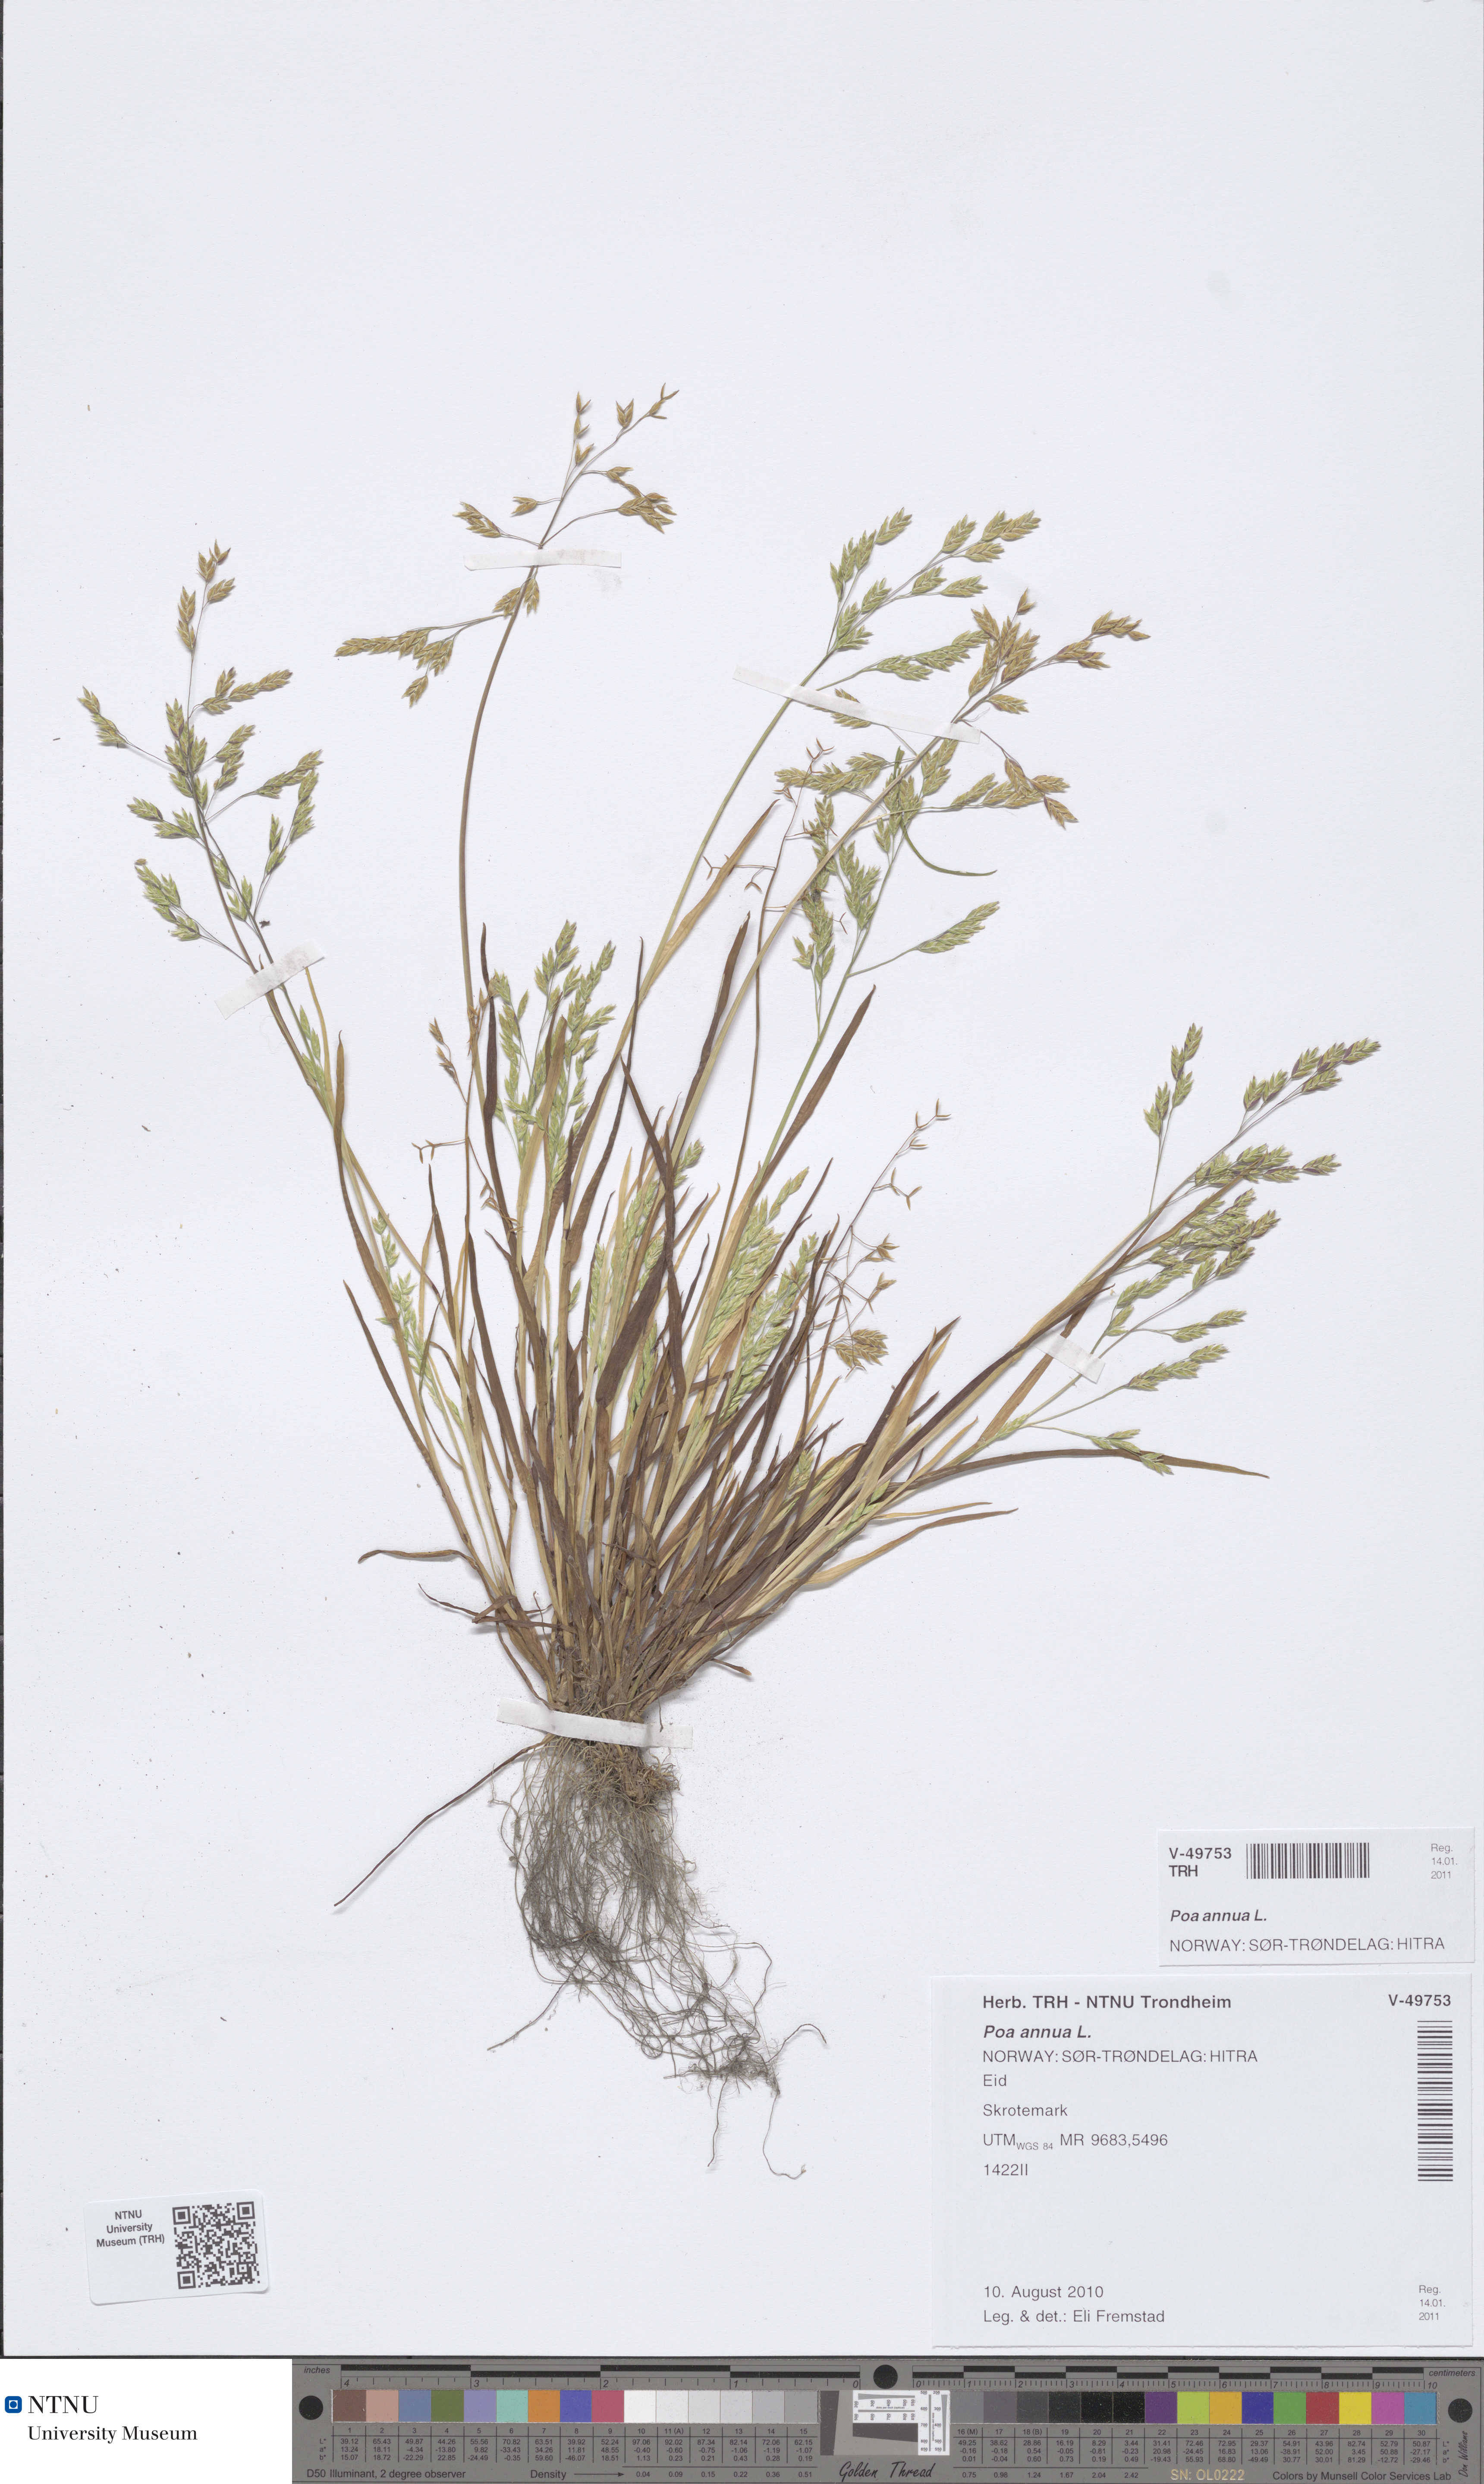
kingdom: Plantae
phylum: Tracheophyta
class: Liliopsida
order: Poales
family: Poaceae
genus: Poa
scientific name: Poa annua
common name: Annual bluegrass
